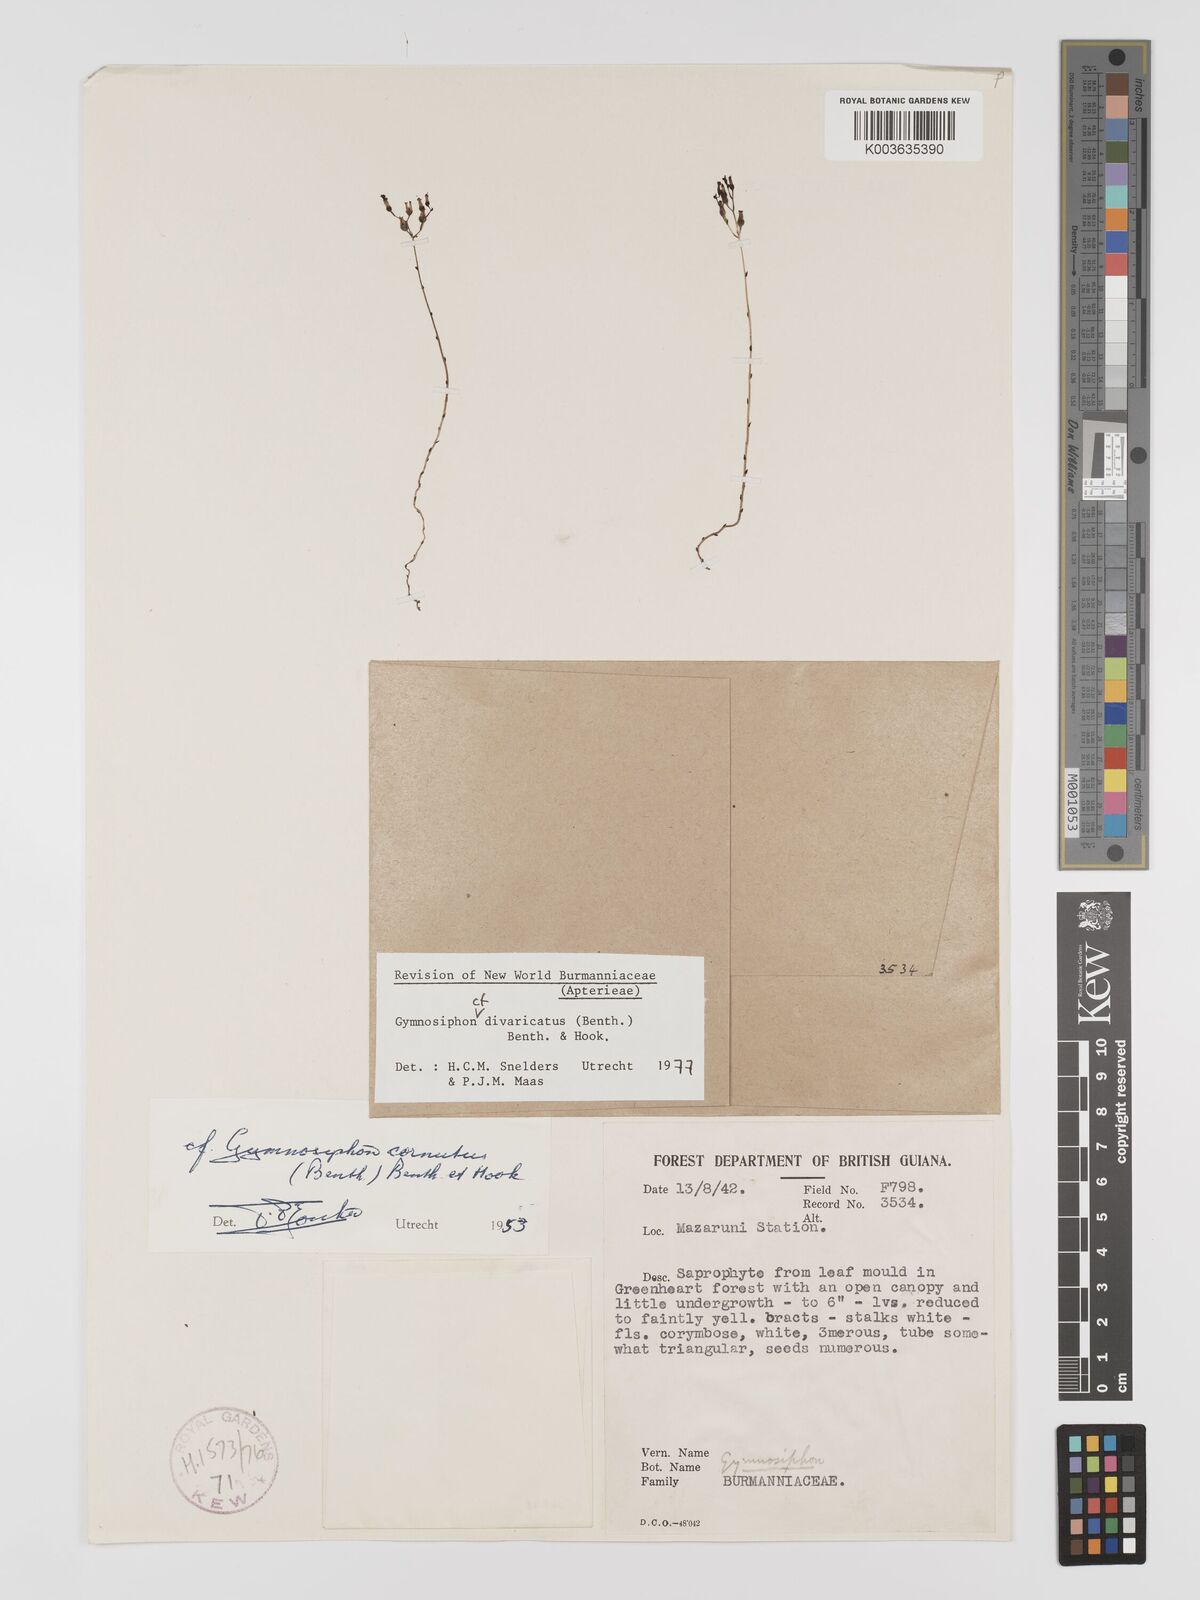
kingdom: Plantae
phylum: Tracheophyta
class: Liliopsida
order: Dioscoreales
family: Burmanniaceae
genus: Gymnosiphon
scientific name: Gymnosiphon divaricatus
